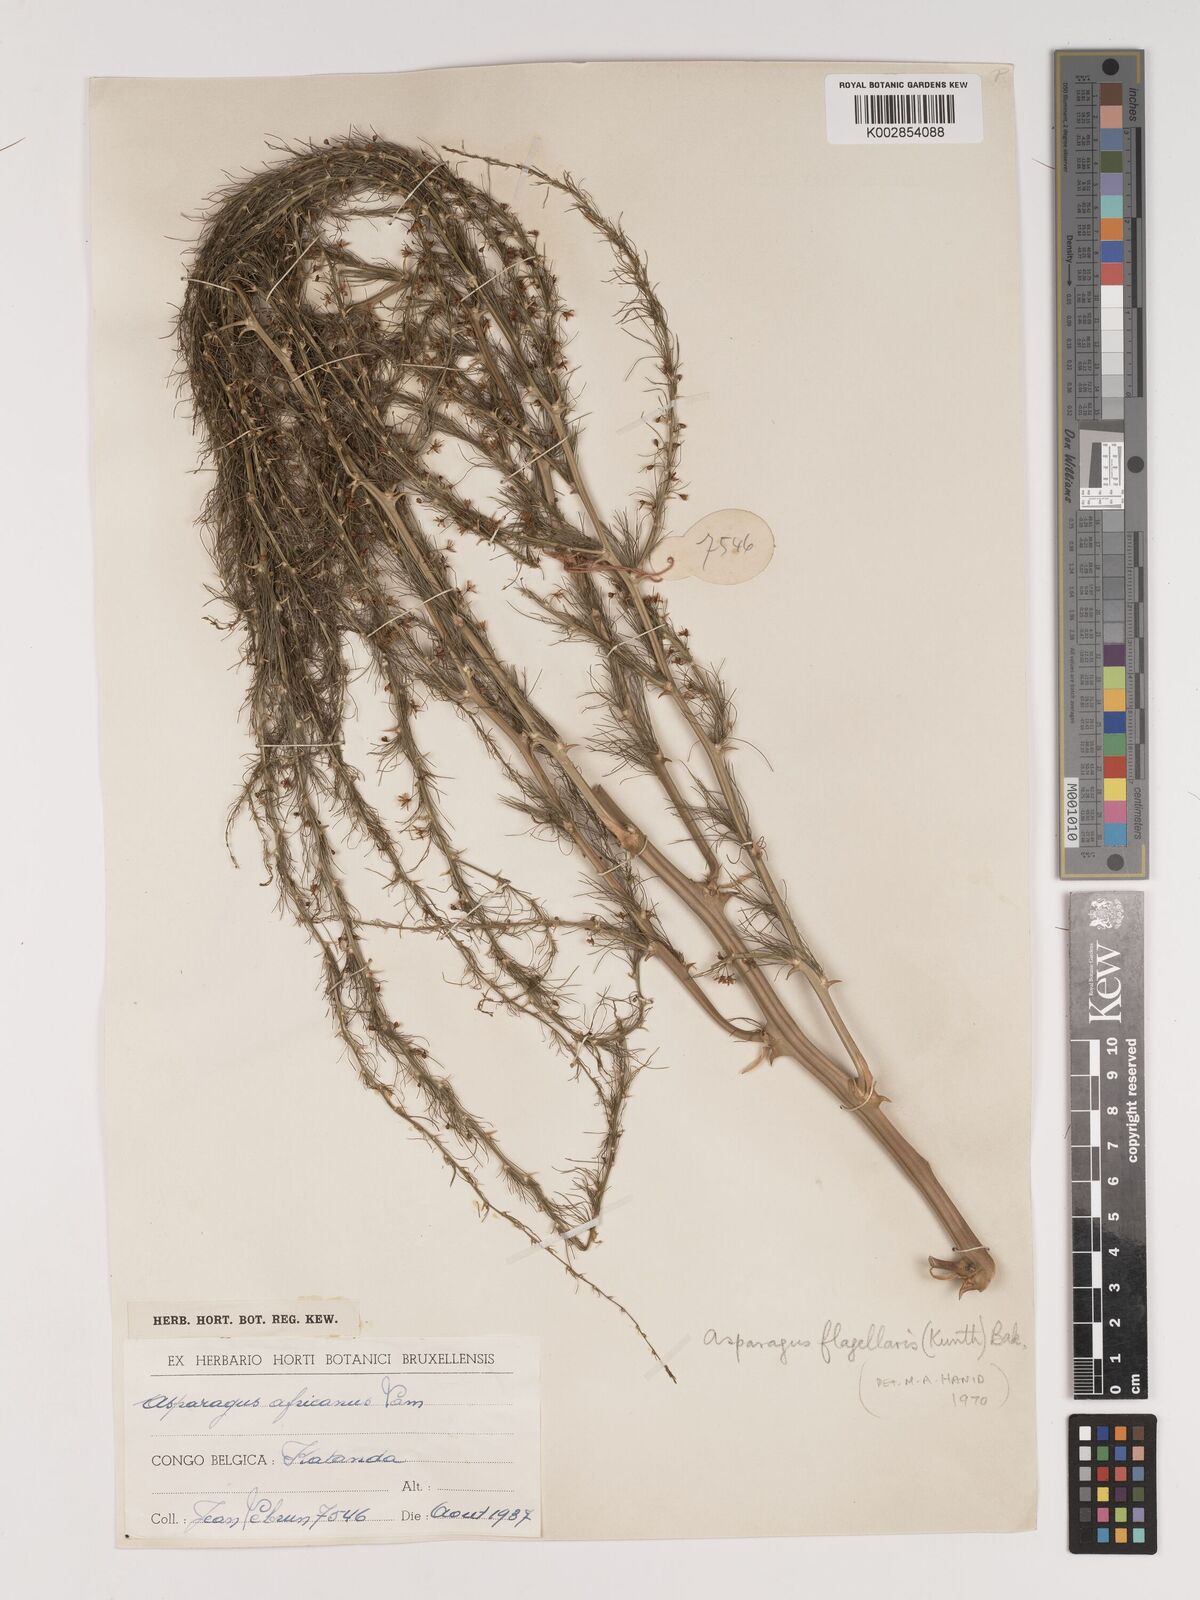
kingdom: Plantae
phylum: Tracheophyta
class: Liliopsida
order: Asparagales
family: Asparagaceae
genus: Asparagus
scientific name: Asparagus flagellaris
